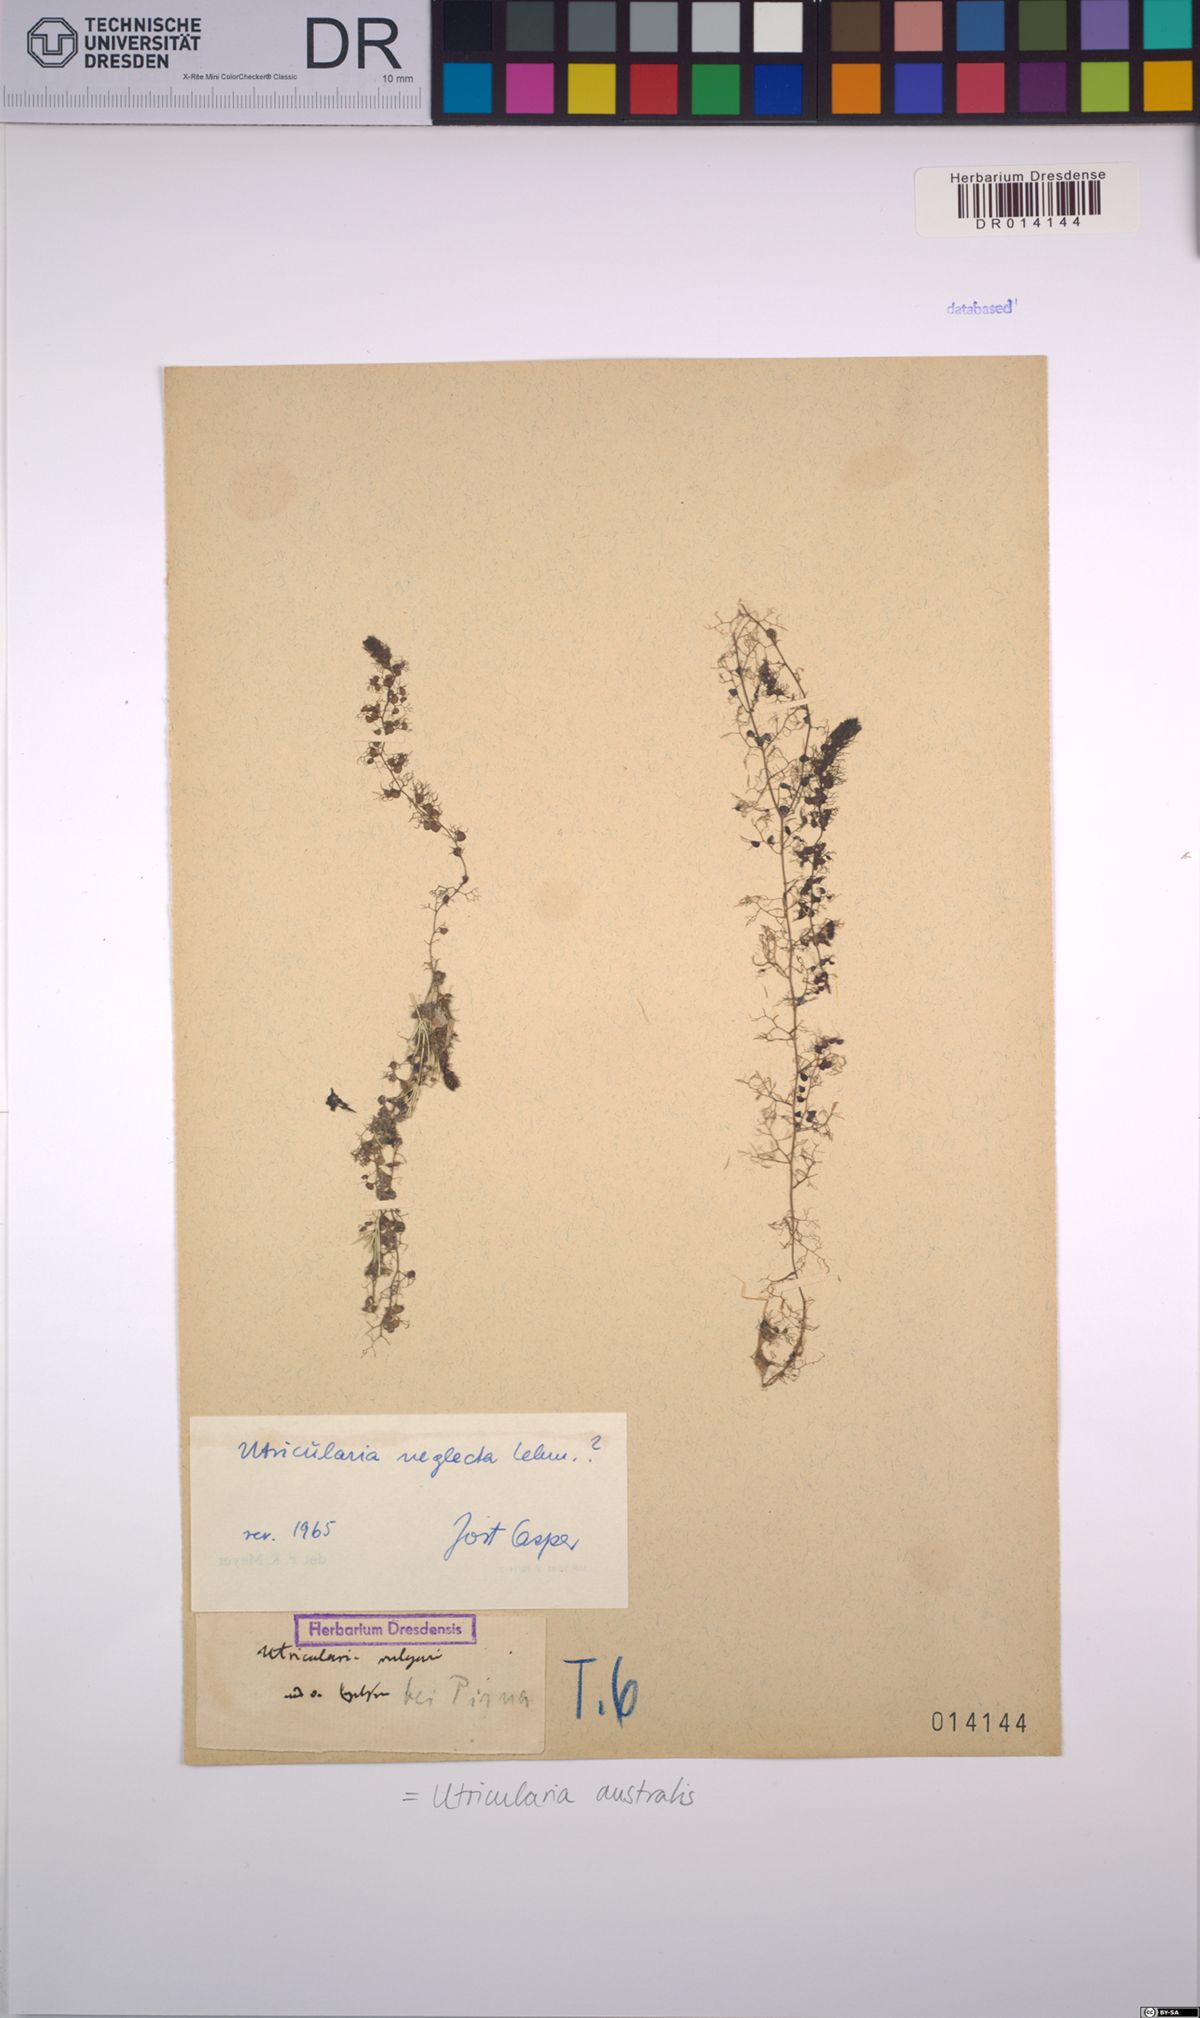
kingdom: Plantae
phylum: Tracheophyta
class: Magnoliopsida
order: Lamiales
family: Lentibulariaceae
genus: Utricularia
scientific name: Utricularia australis
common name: Bladderwort
